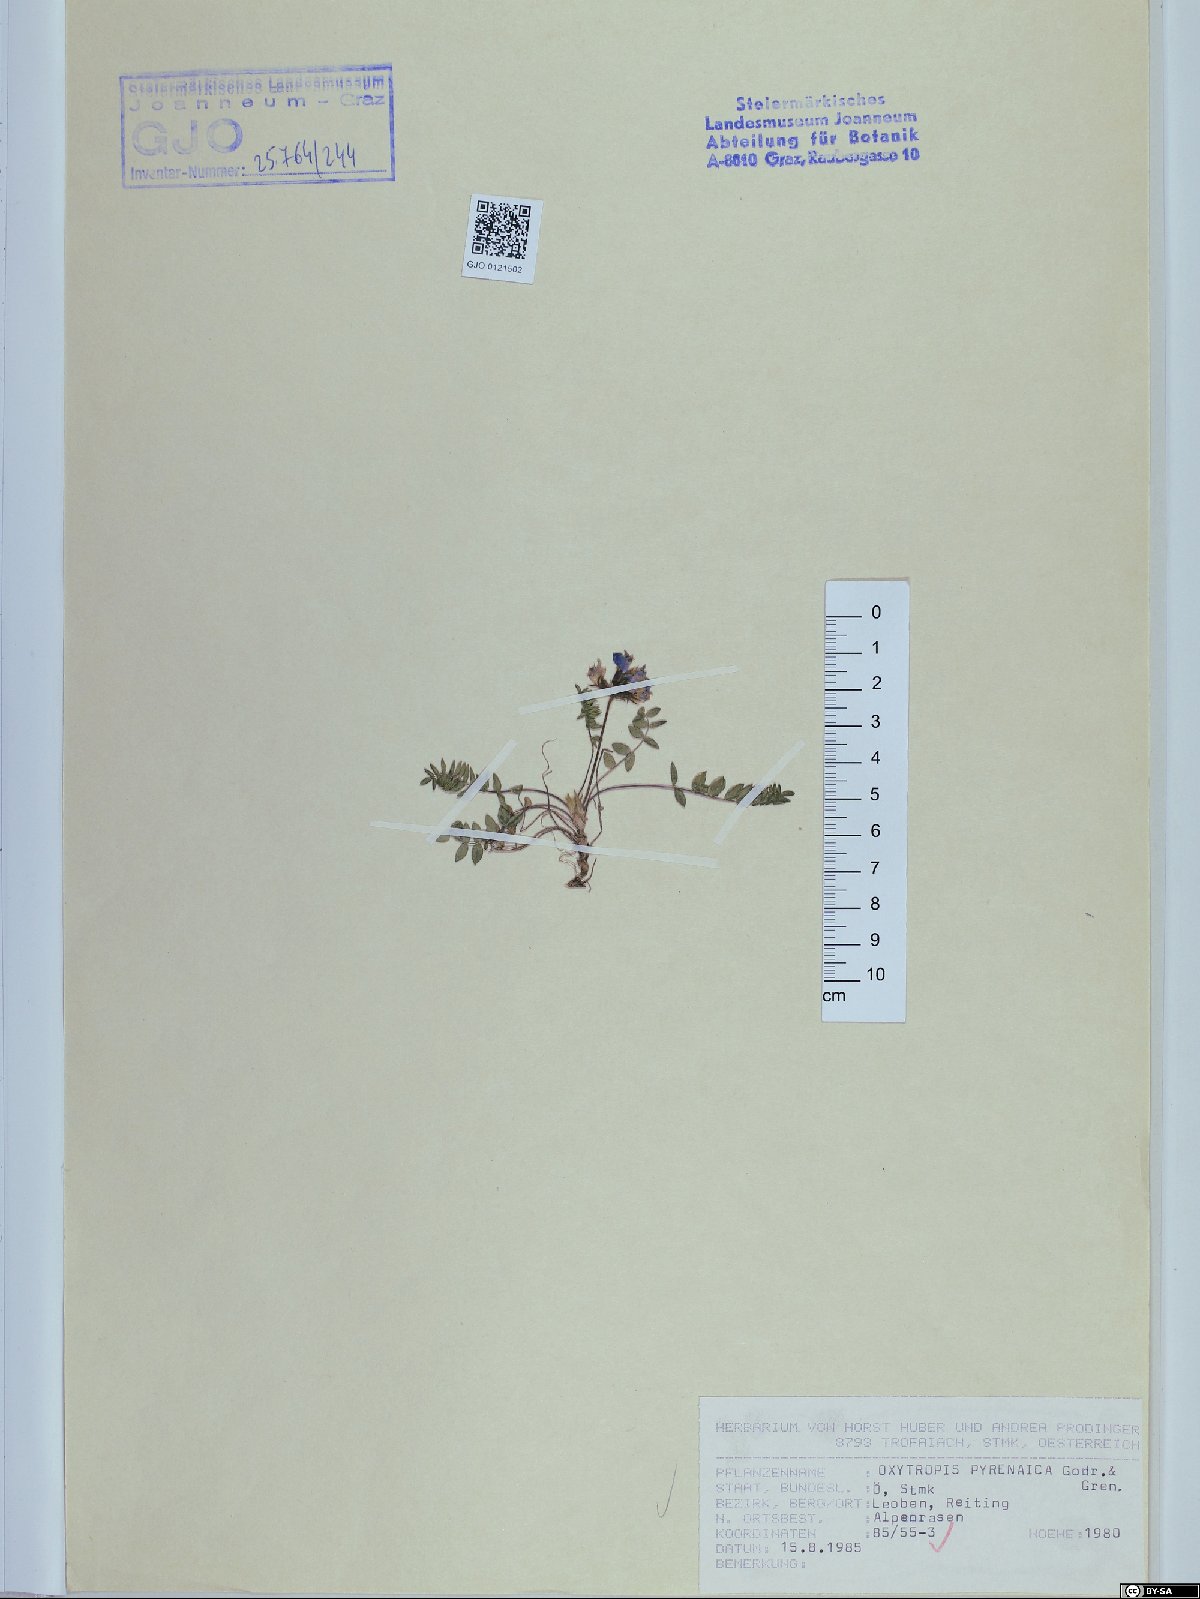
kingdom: Plantae
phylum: Tracheophyta
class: Magnoliopsida
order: Fabales
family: Fabaceae
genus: Oxytropis
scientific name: Oxytropis neglecta
